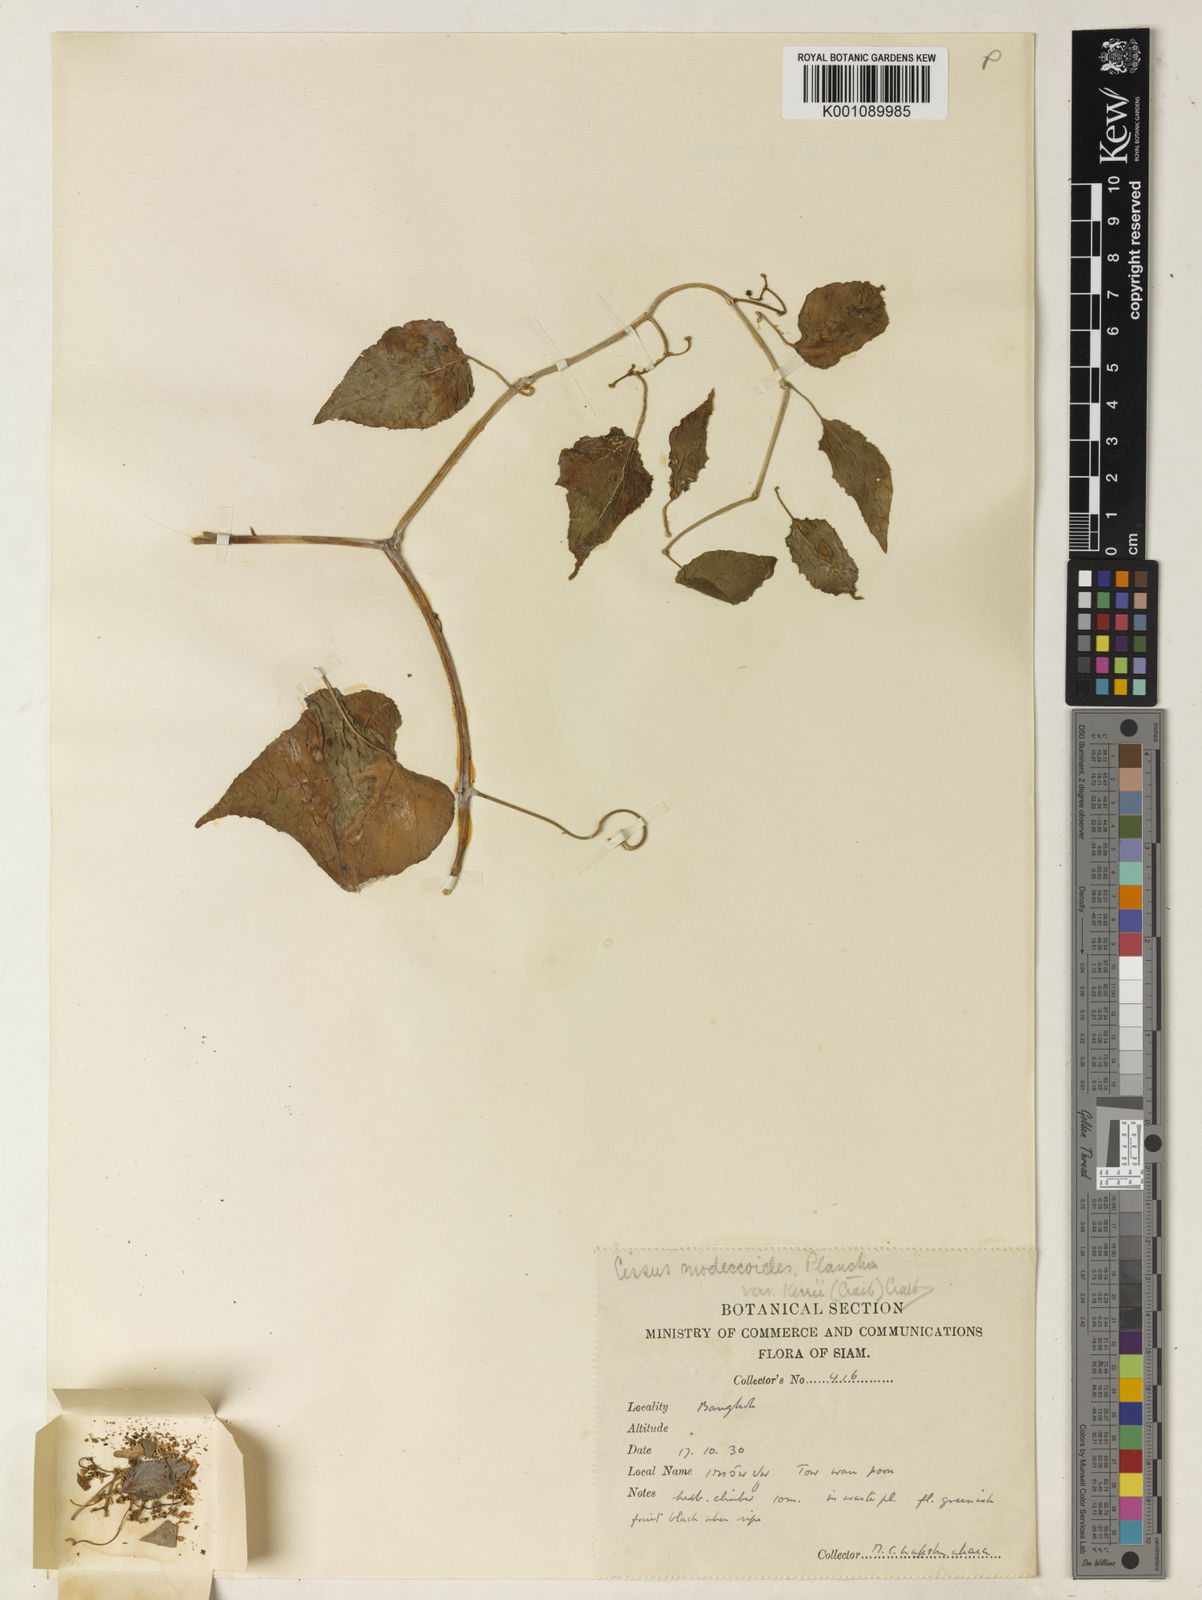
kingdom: Plantae
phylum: Tracheophyta
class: Magnoliopsida
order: Vitales
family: Vitaceae
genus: Cissus
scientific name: Cissus modeccoides
